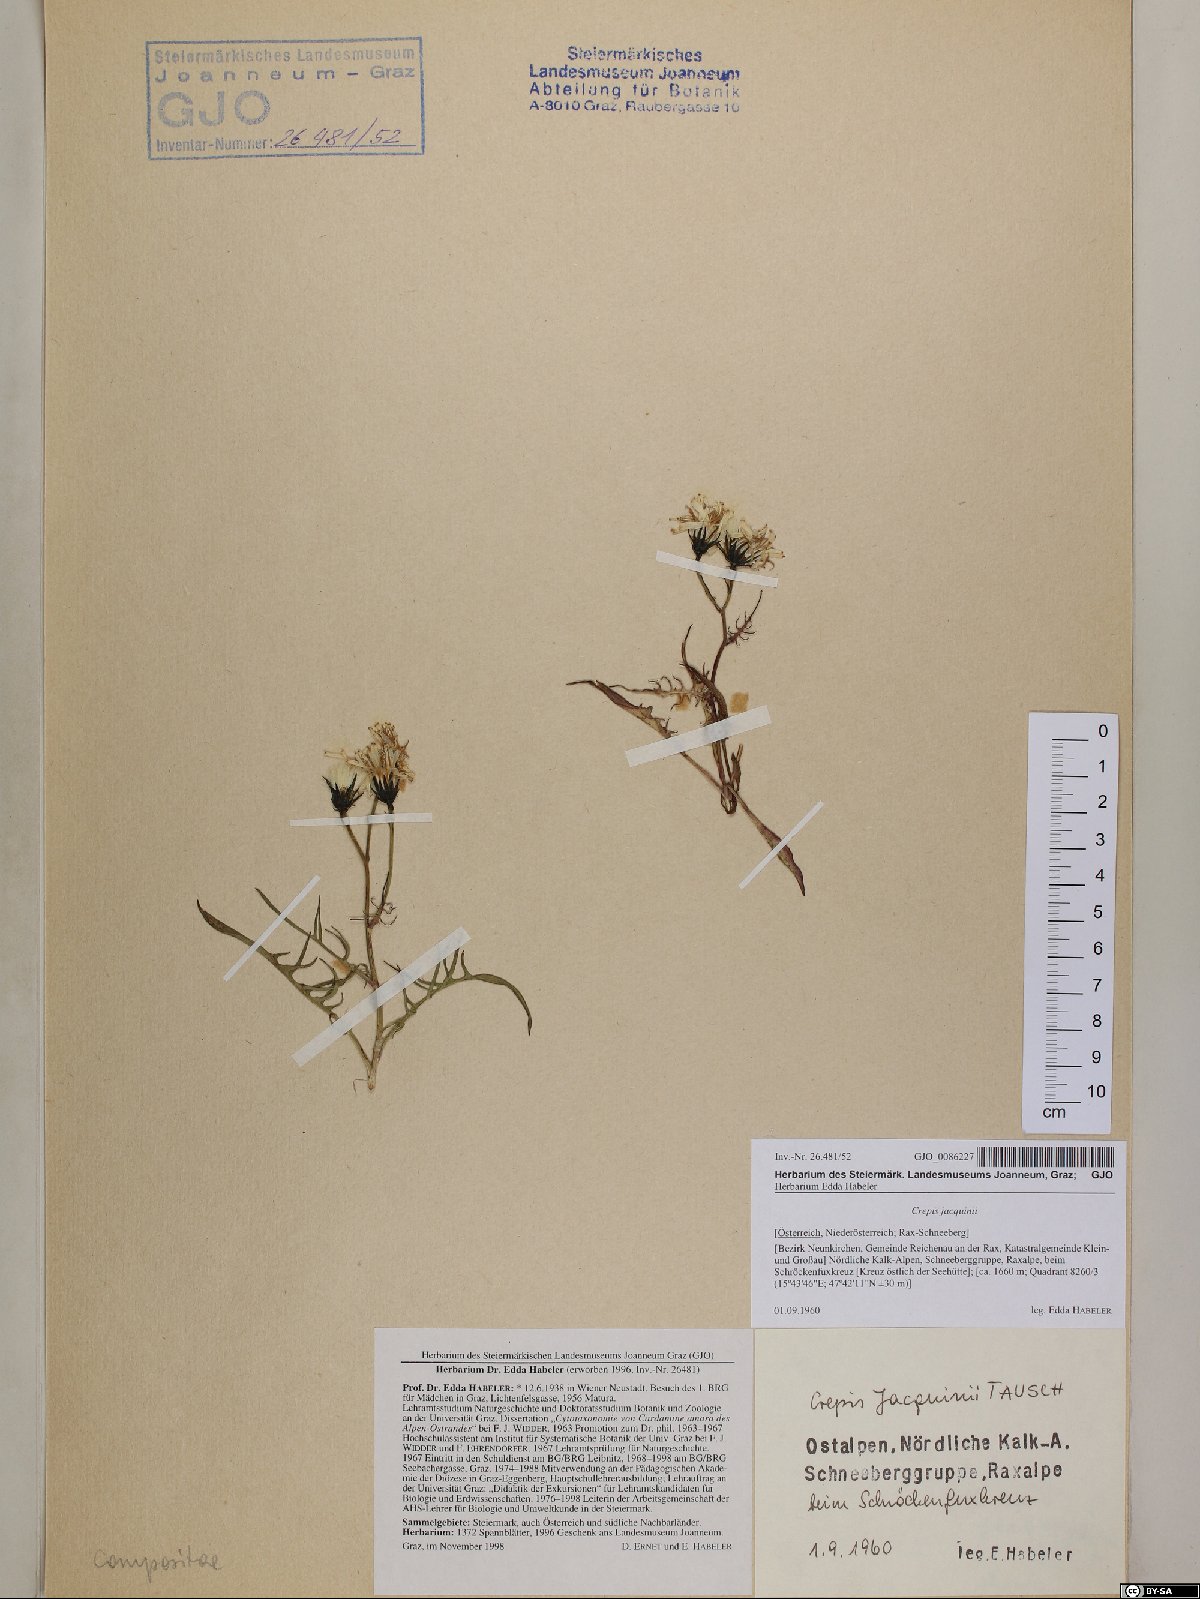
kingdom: Plantae
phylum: Tracheophyta
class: Magnoliopsida
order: Asterales
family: Asteraceae
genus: Crepis
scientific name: Crepis jacquinii
